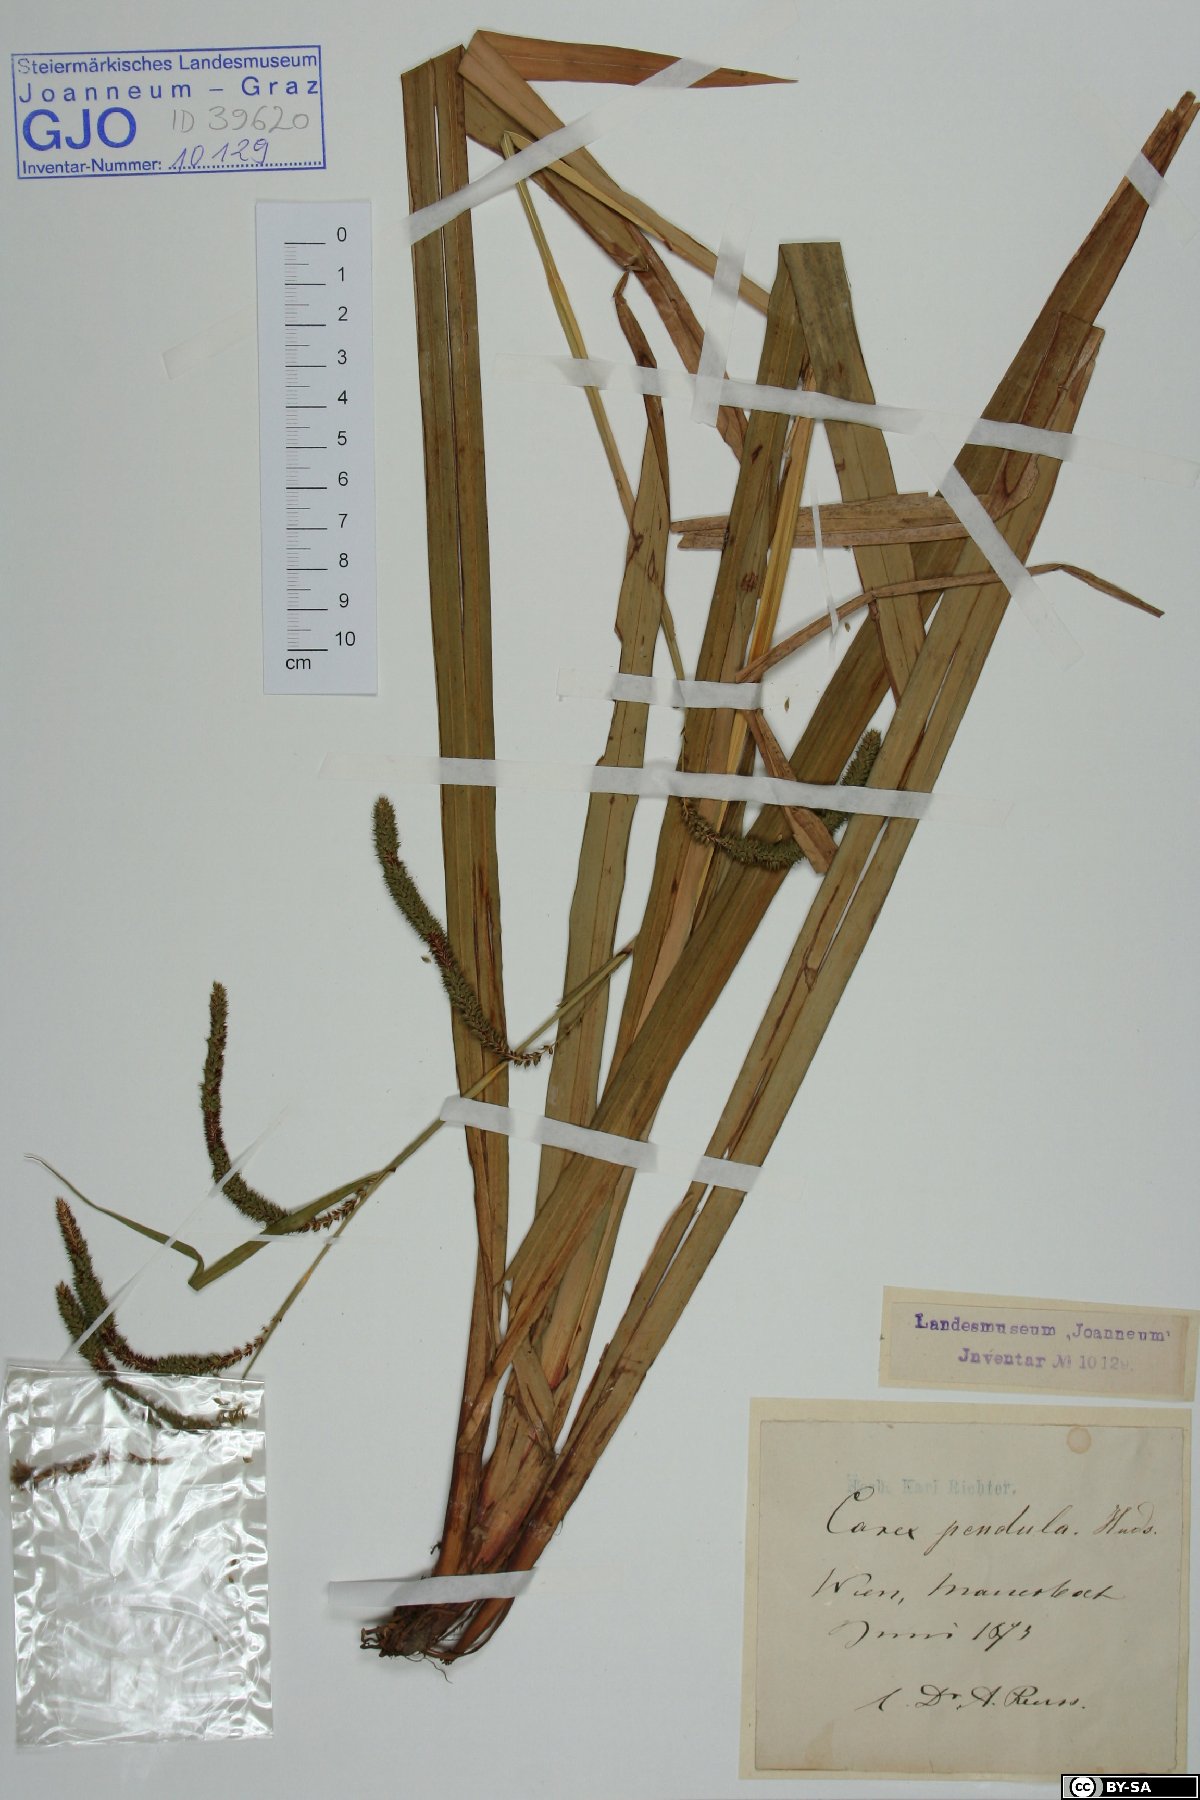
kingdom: Plantae
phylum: Tracheophyta
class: Liliopsida
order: Poales
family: Cyperaceae
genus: Carex
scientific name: Carex pendula
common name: Pendulous sedge
